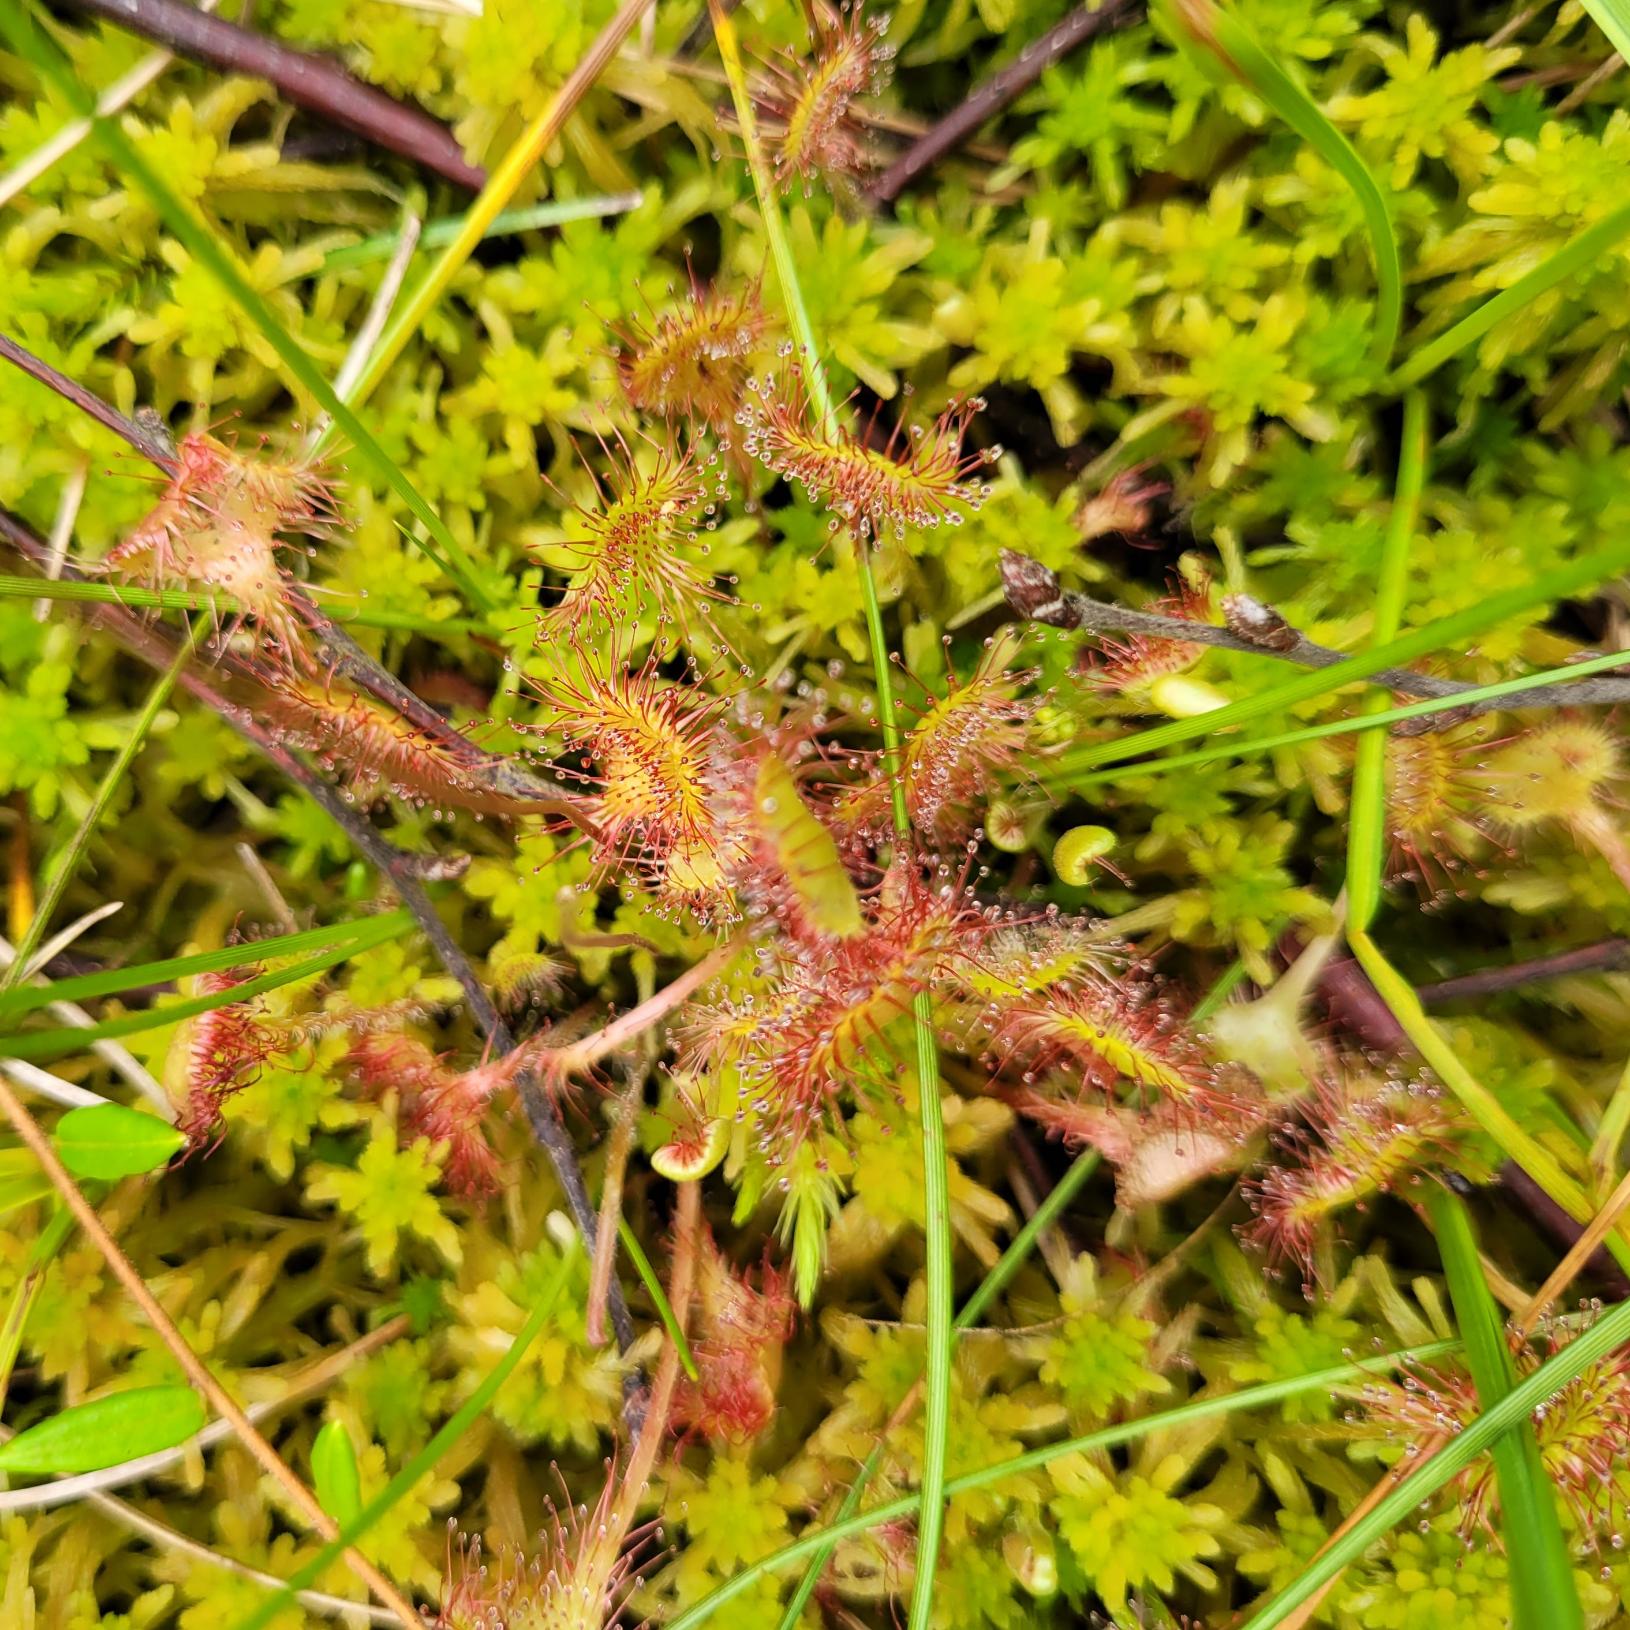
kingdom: Plantae
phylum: Tracheophyta
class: Magnoliopsida
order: Caryophyllales
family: Droseraceae
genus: Drosera
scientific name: Drosera rotundifolia
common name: Rundbladet soldug
